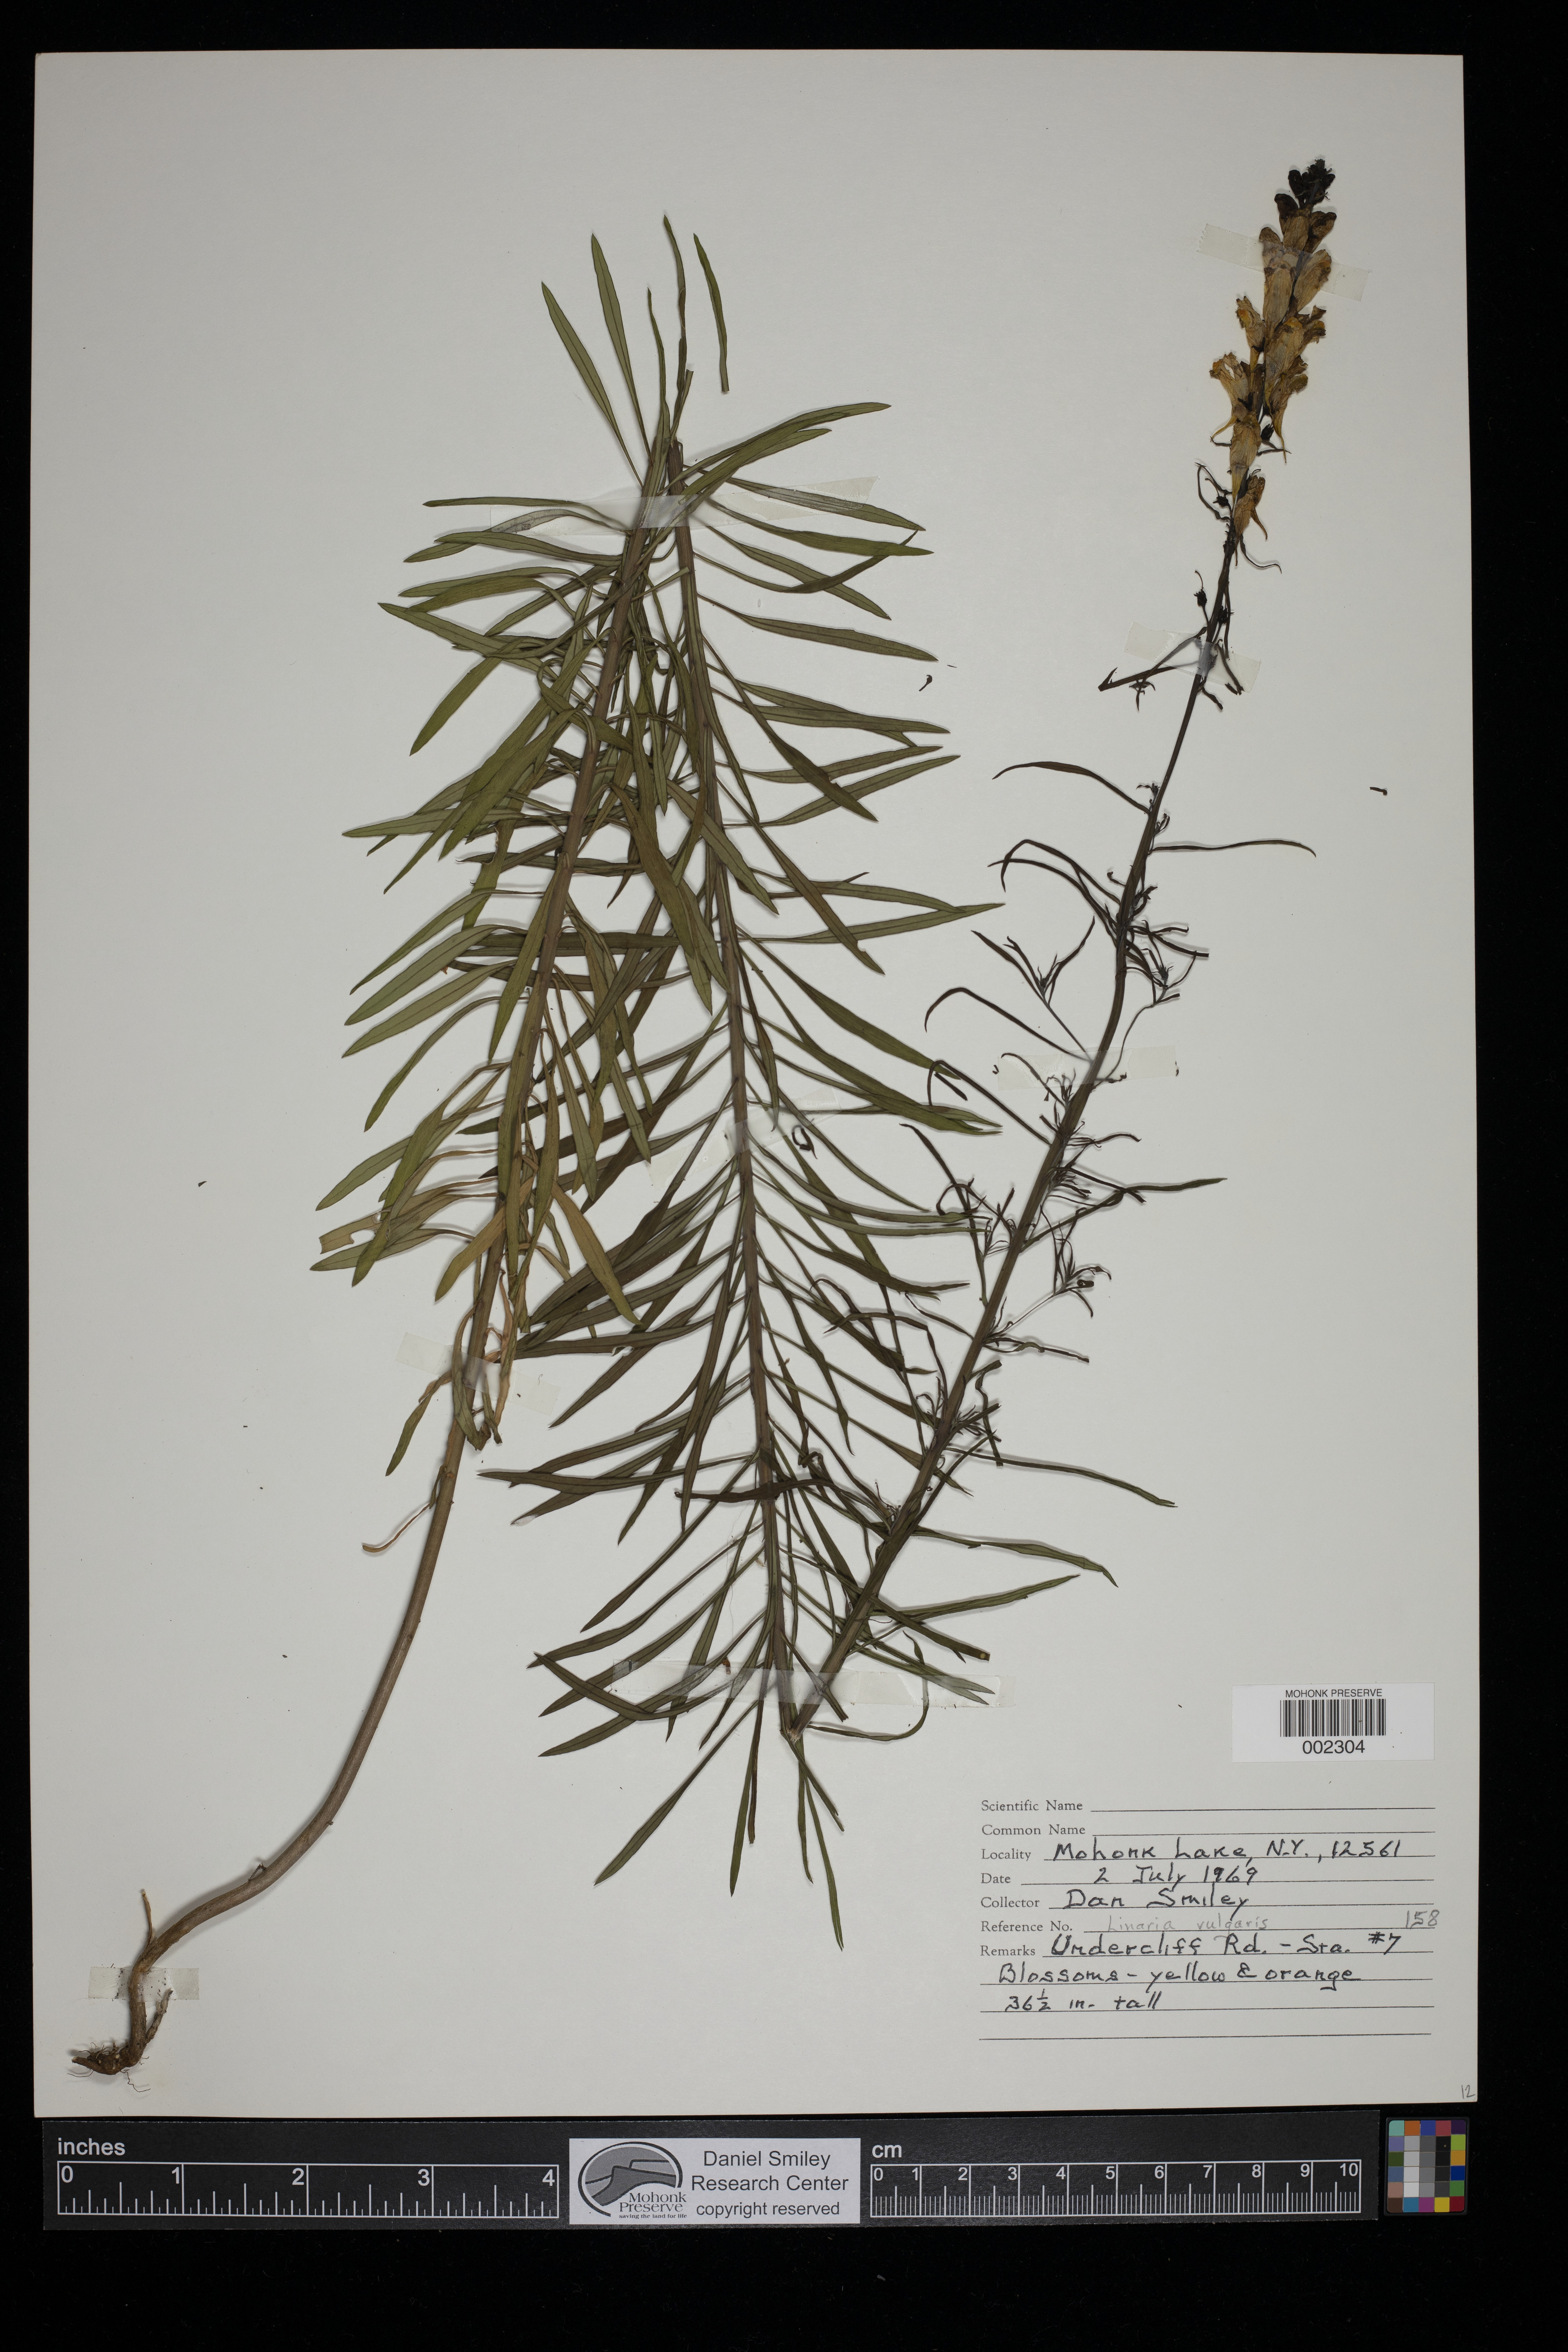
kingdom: Plantae
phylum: Tracheophyta
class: Magnoliopsida
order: Lamiales
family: Plantaginaceae
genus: Linaria
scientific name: Linaria vulgaris
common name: Butter and eggs
